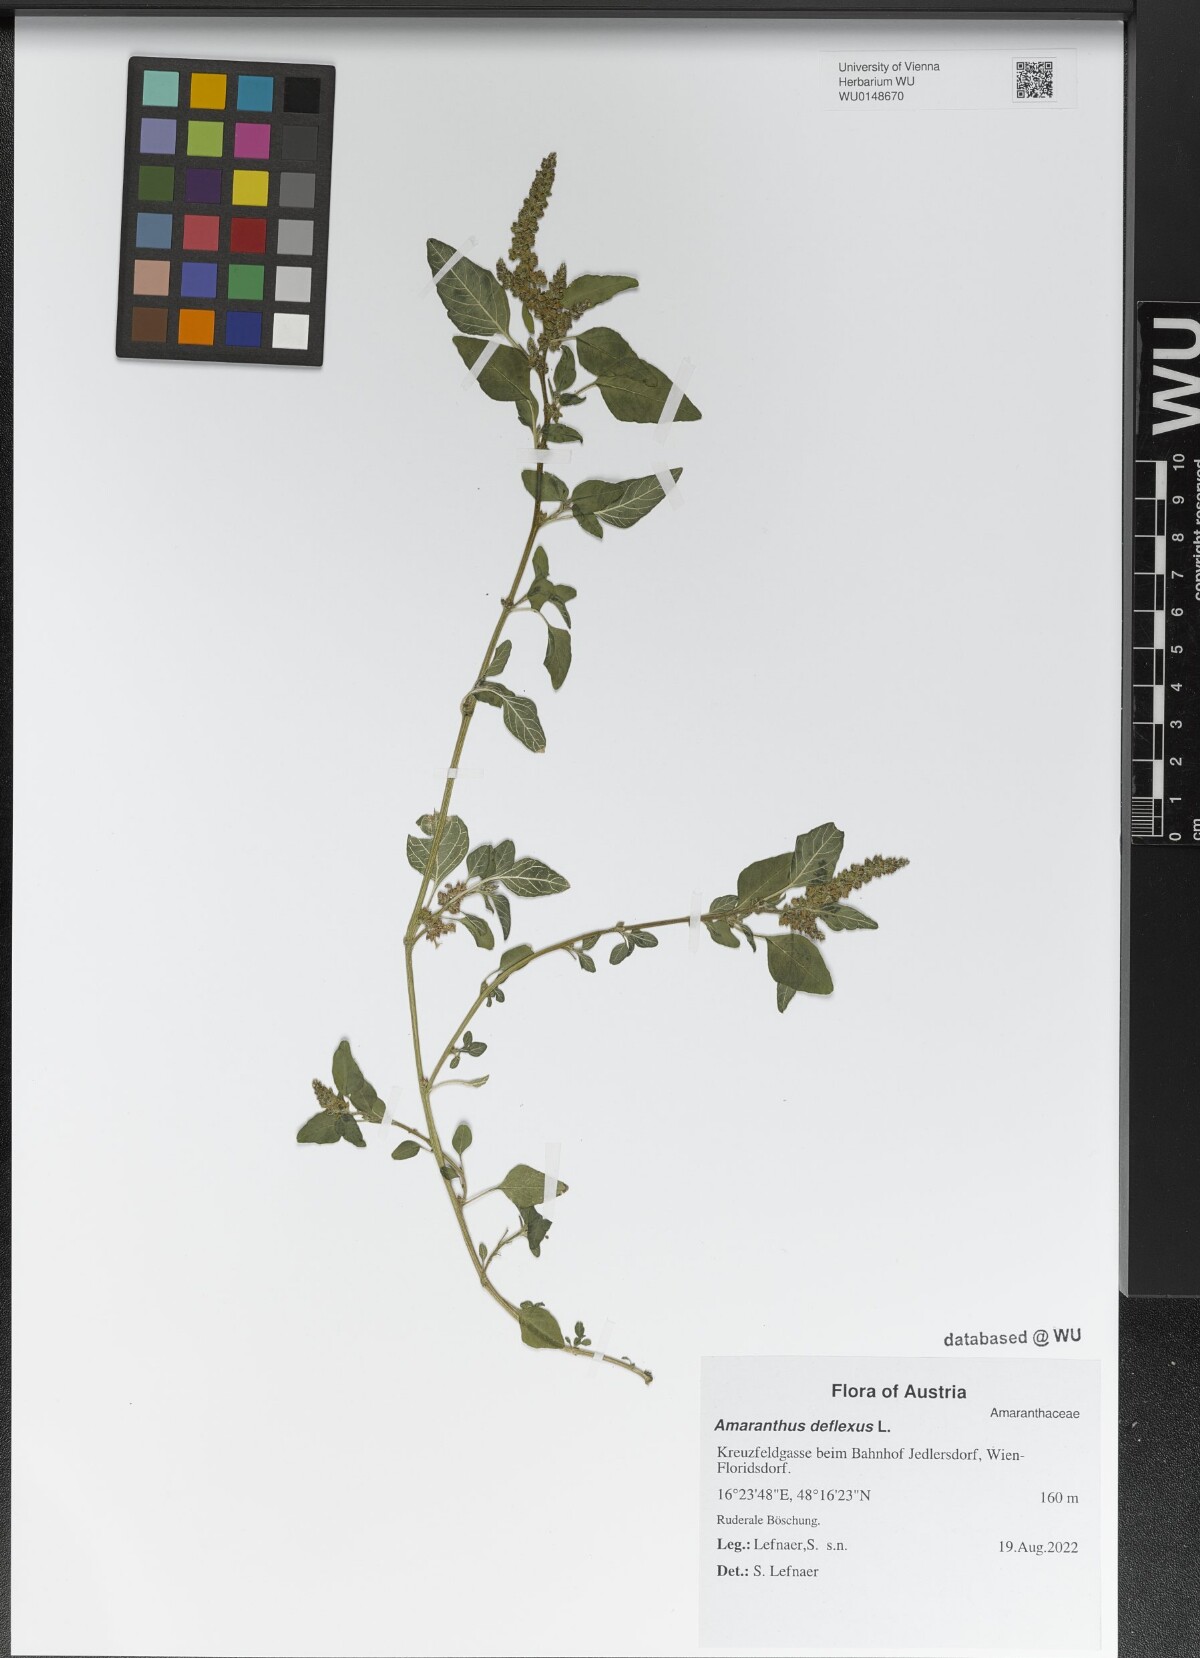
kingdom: Plantae
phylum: Tracheophyta
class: Magnoliopsida
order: Caryophyllales
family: Amaranthaceae
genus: Amaranthus
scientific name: Amaranthus deflexus
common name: Perennial pigweed
